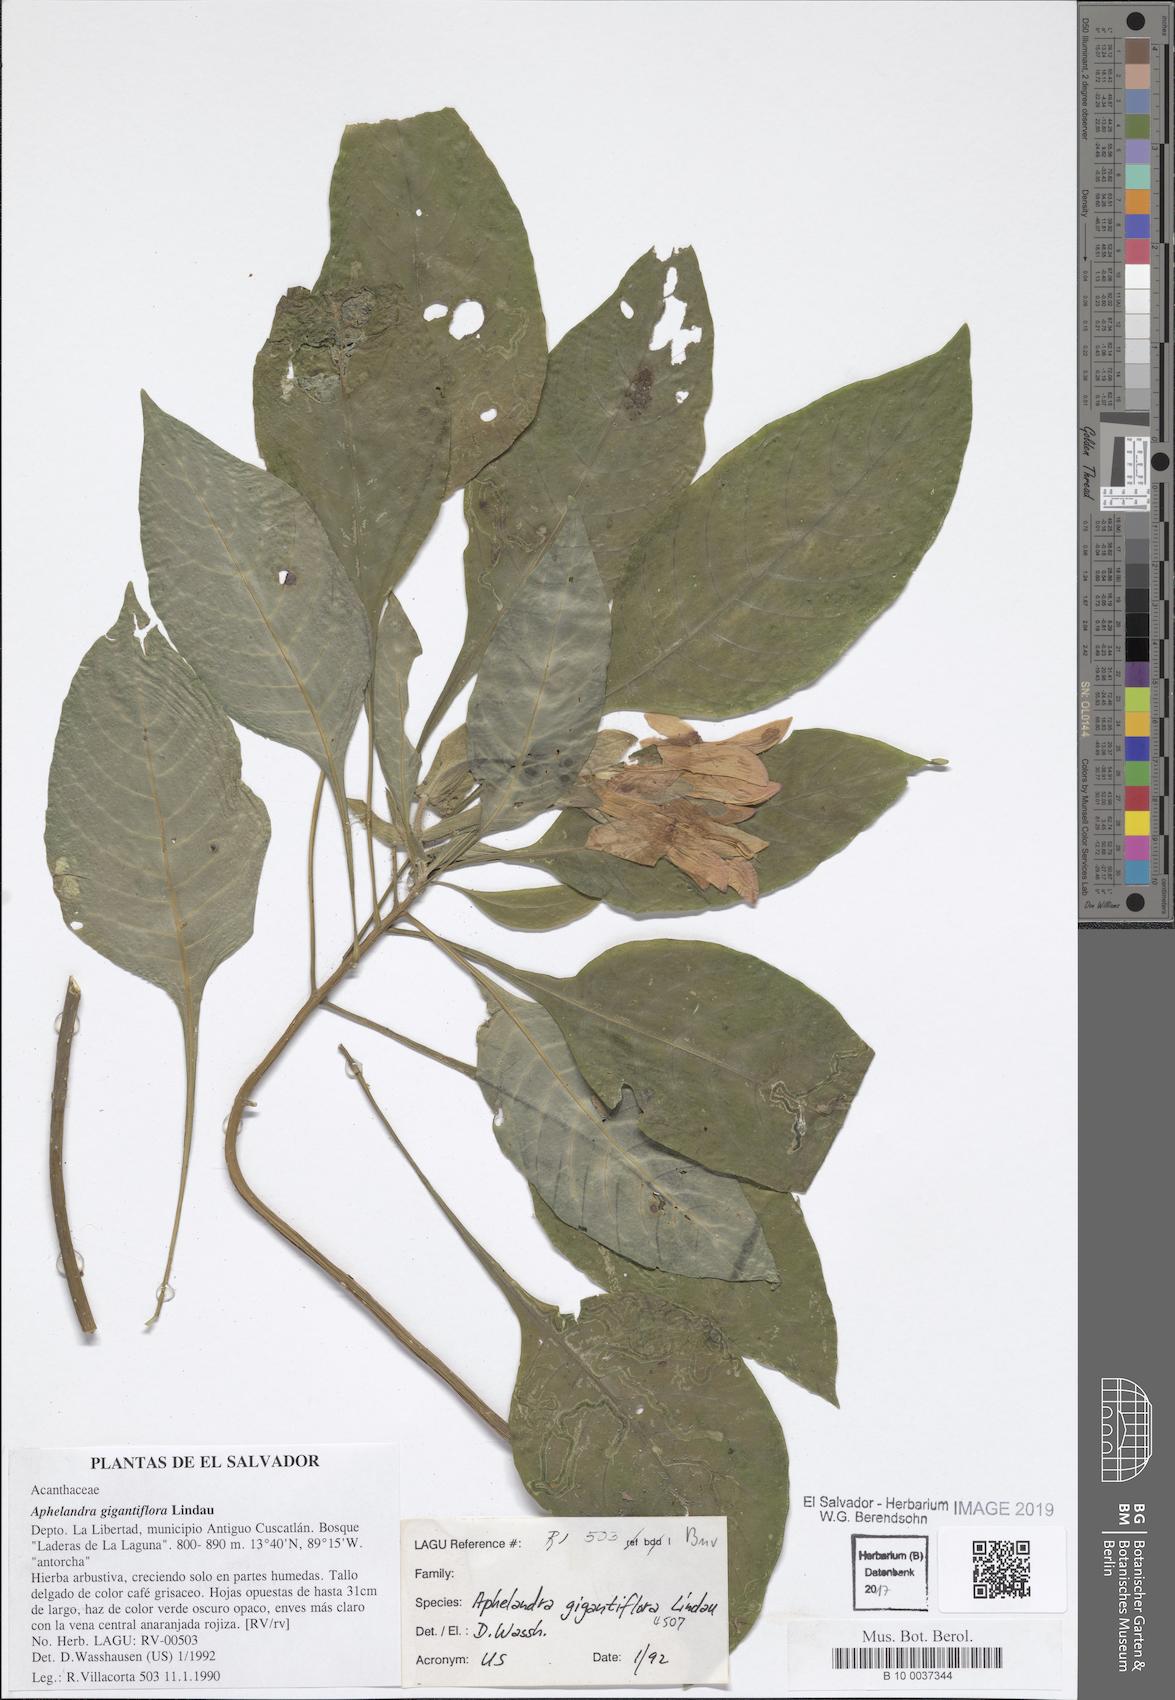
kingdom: Plantae
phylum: Tracheophyta
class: Magnoliopsida
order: Lamiales
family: Acanthaceae
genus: Aphelandra
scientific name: Aphelandra gigantiflora
